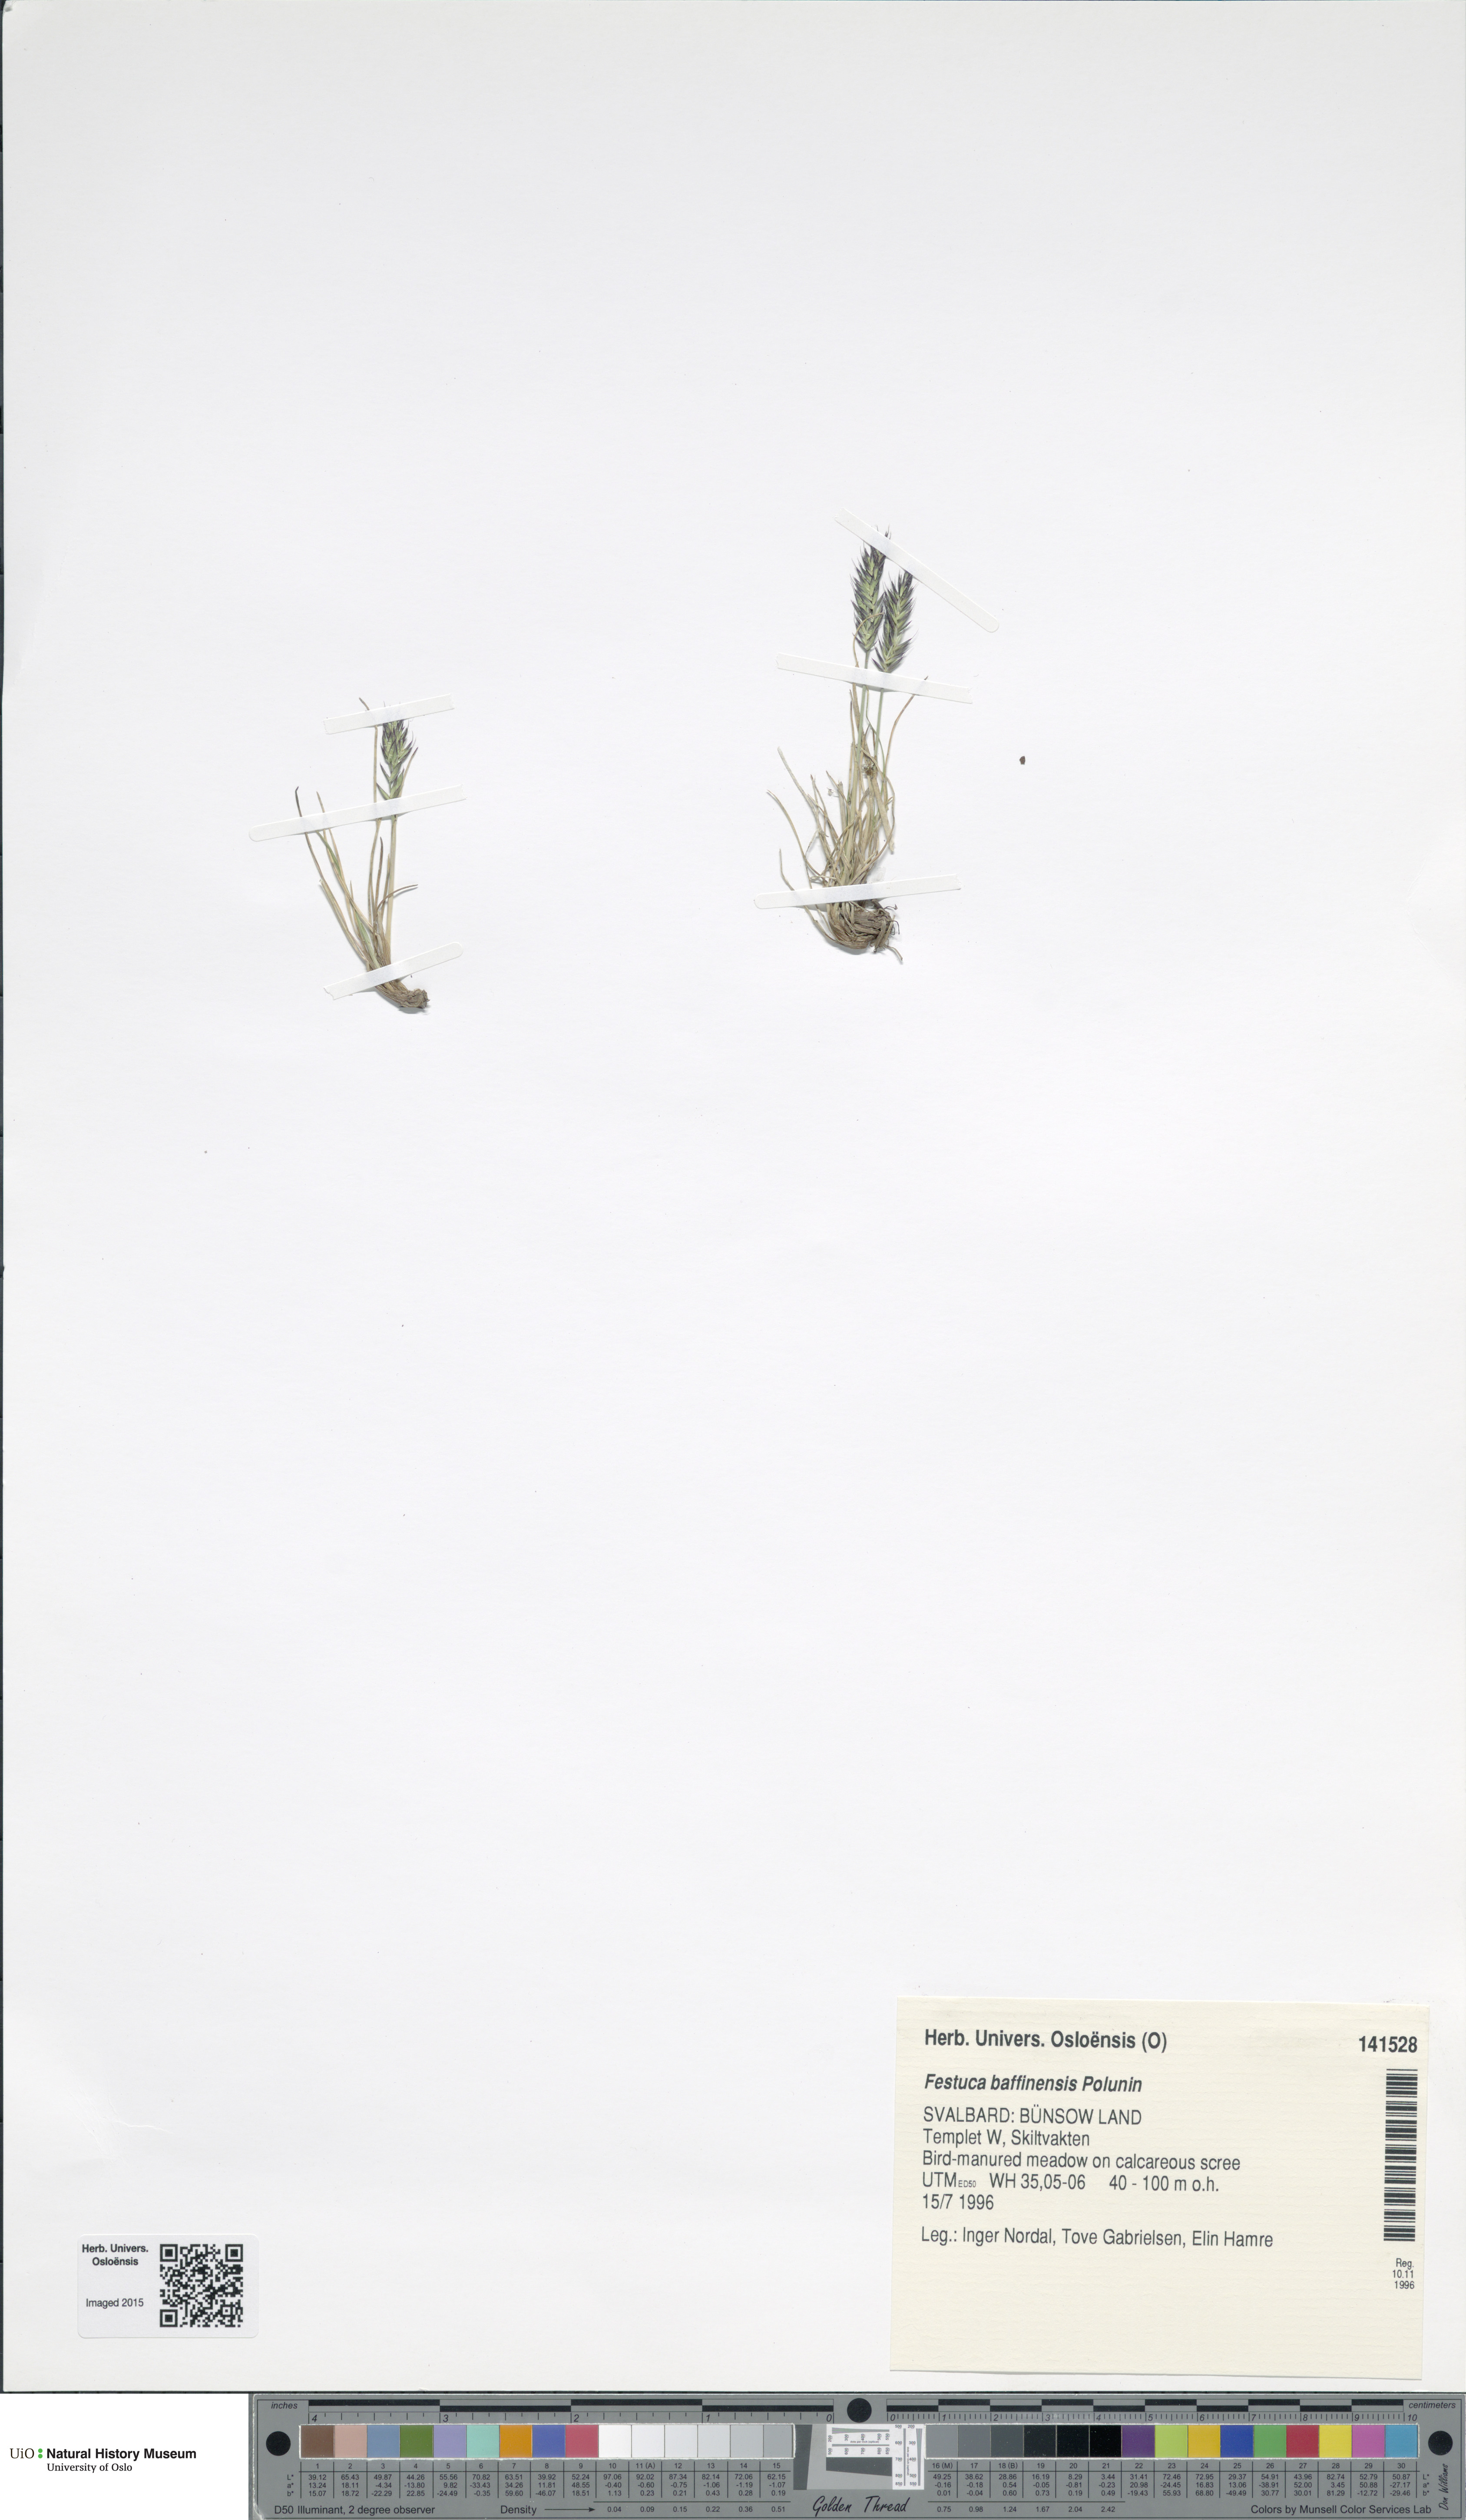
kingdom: Plantae
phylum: Tracheophyta
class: Liliopsida
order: Poales
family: Poaceae
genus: Festuca
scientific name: Festuca baffinensis
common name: Baffin island fescue
